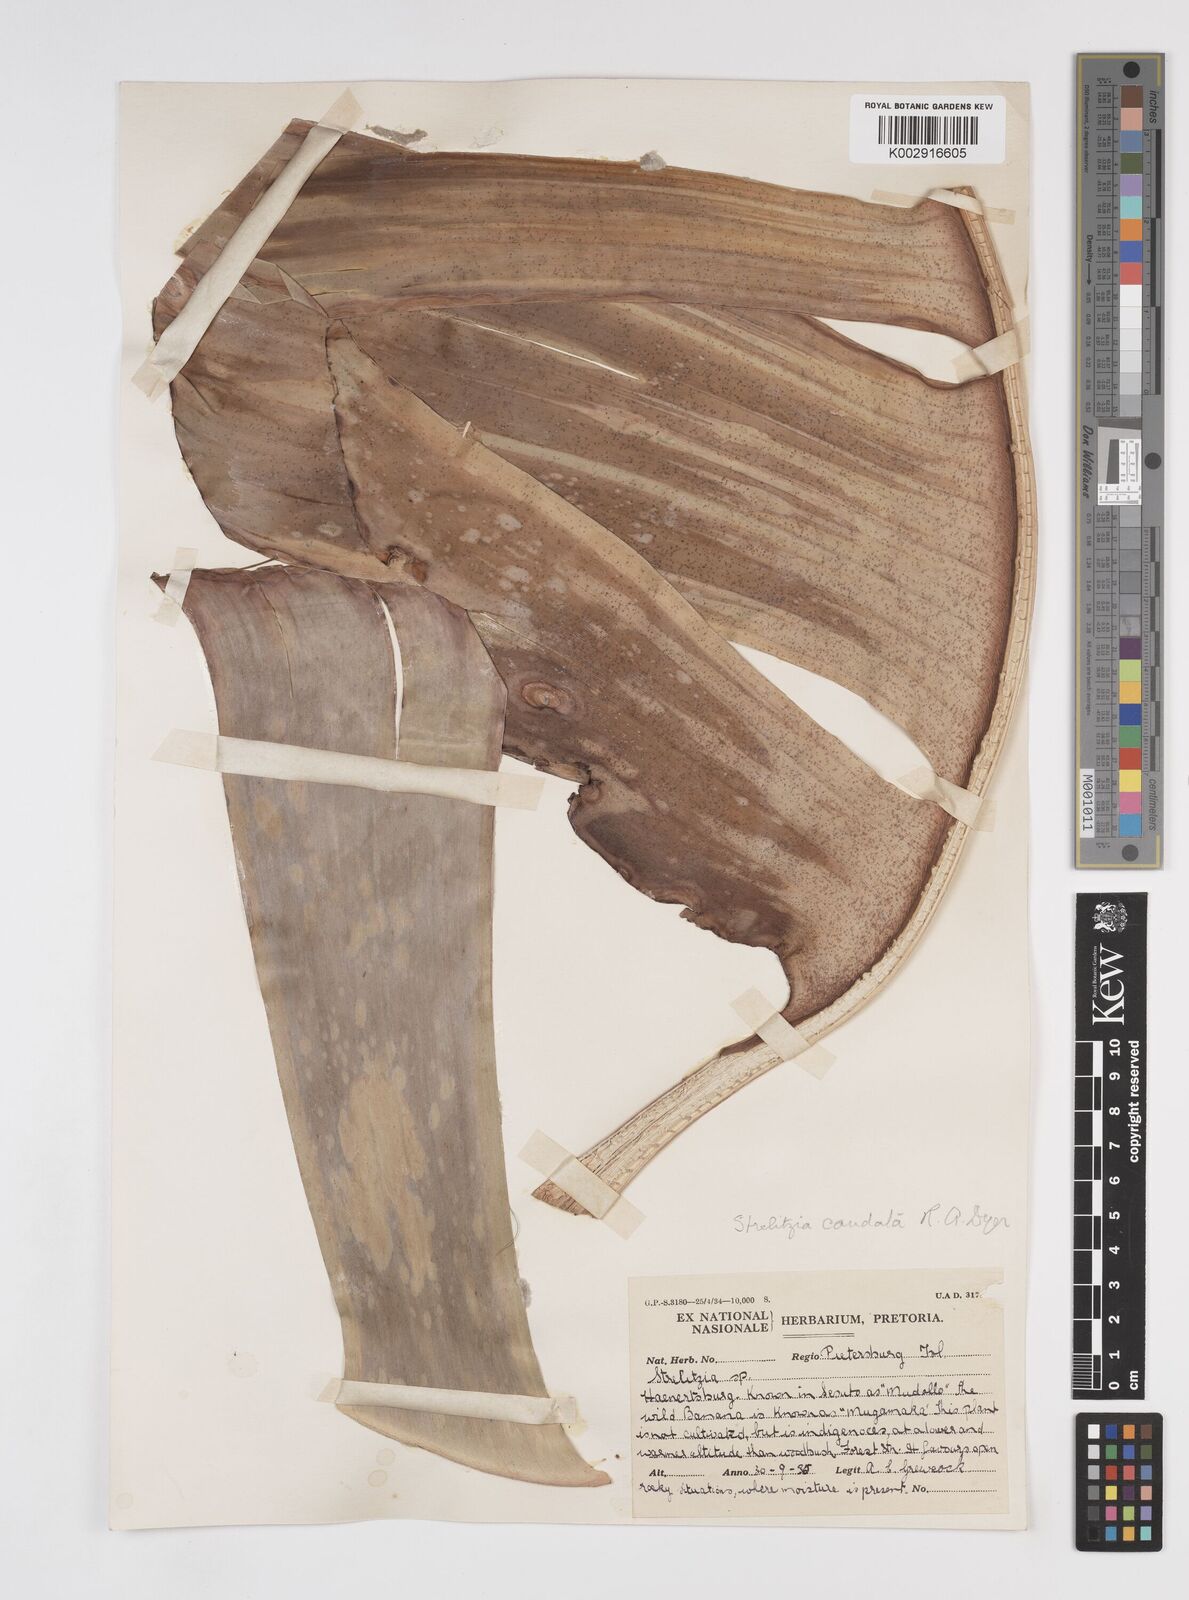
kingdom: Plantae
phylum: Tracheophyta
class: Liliopsida
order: Zingiberales
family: Strelitziaceae
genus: Strelitzia
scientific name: Strelitzia caudata
